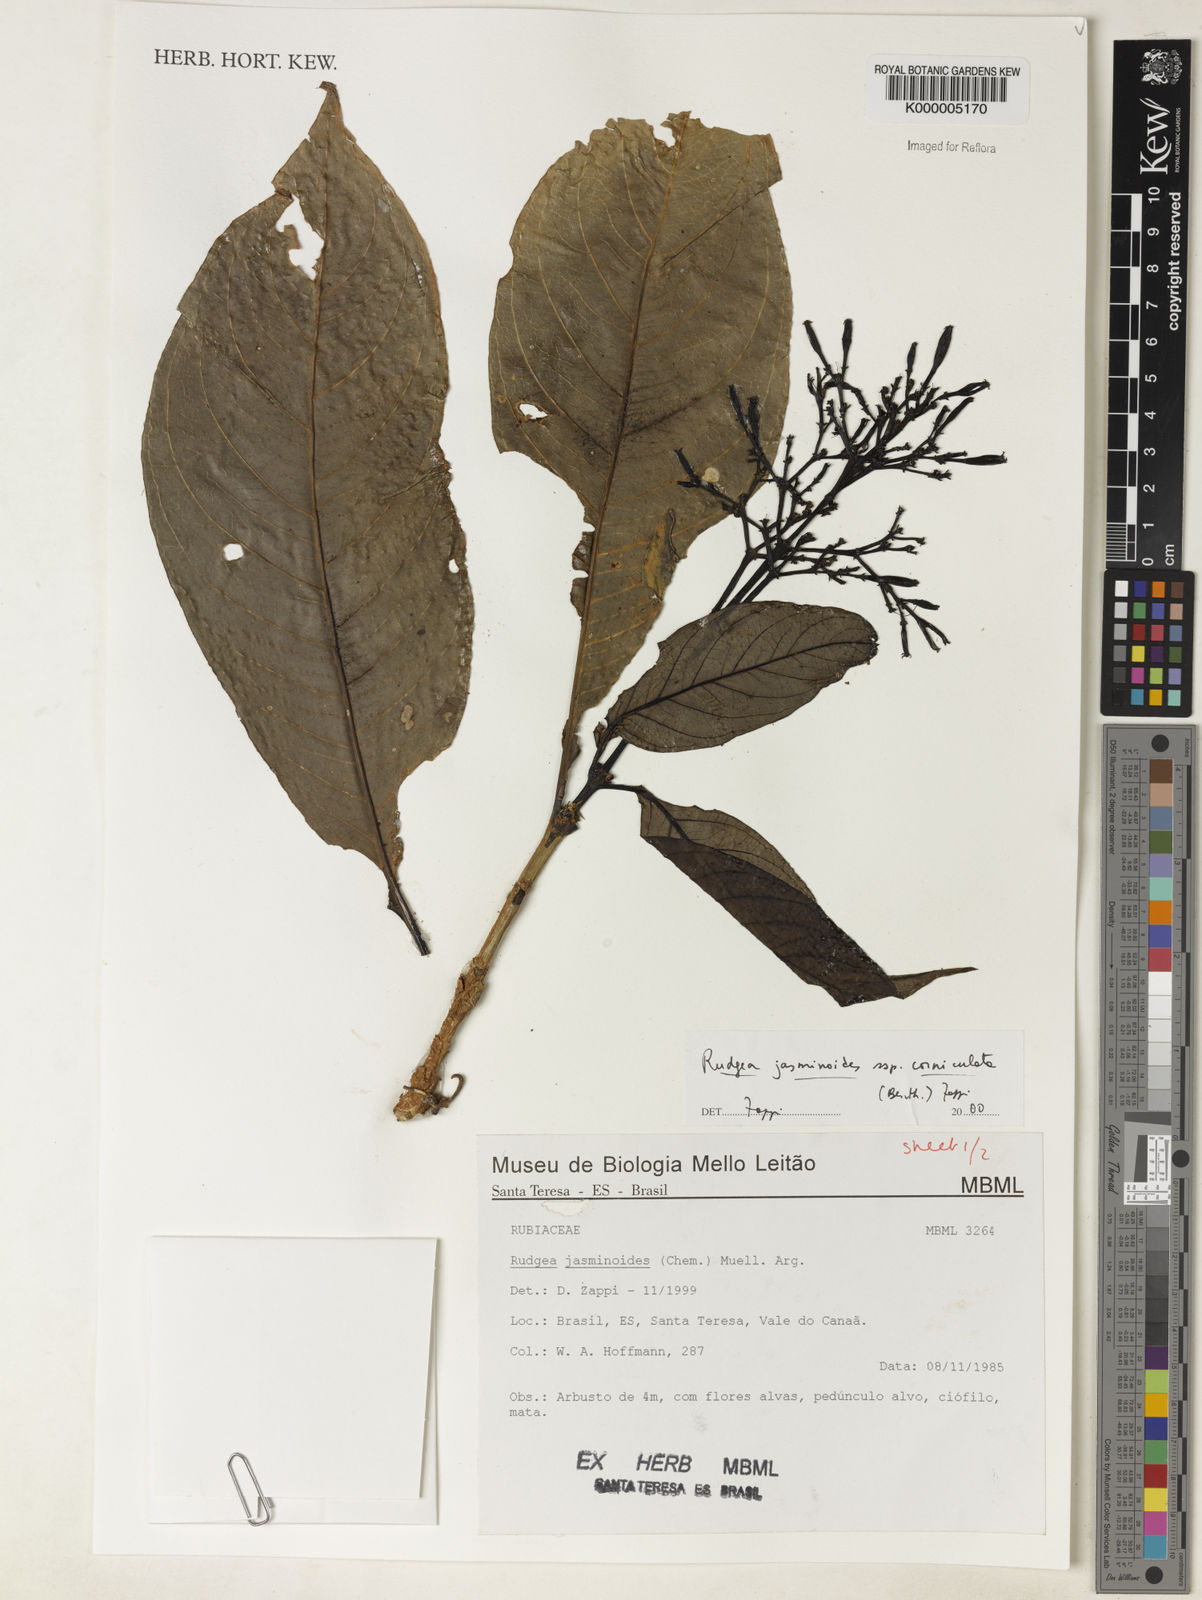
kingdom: Plantae
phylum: Tracheophyta
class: Magnoliopsida
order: Gentianales
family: Rubiaceae
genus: Rudgea
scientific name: Rudgea jasminoides
